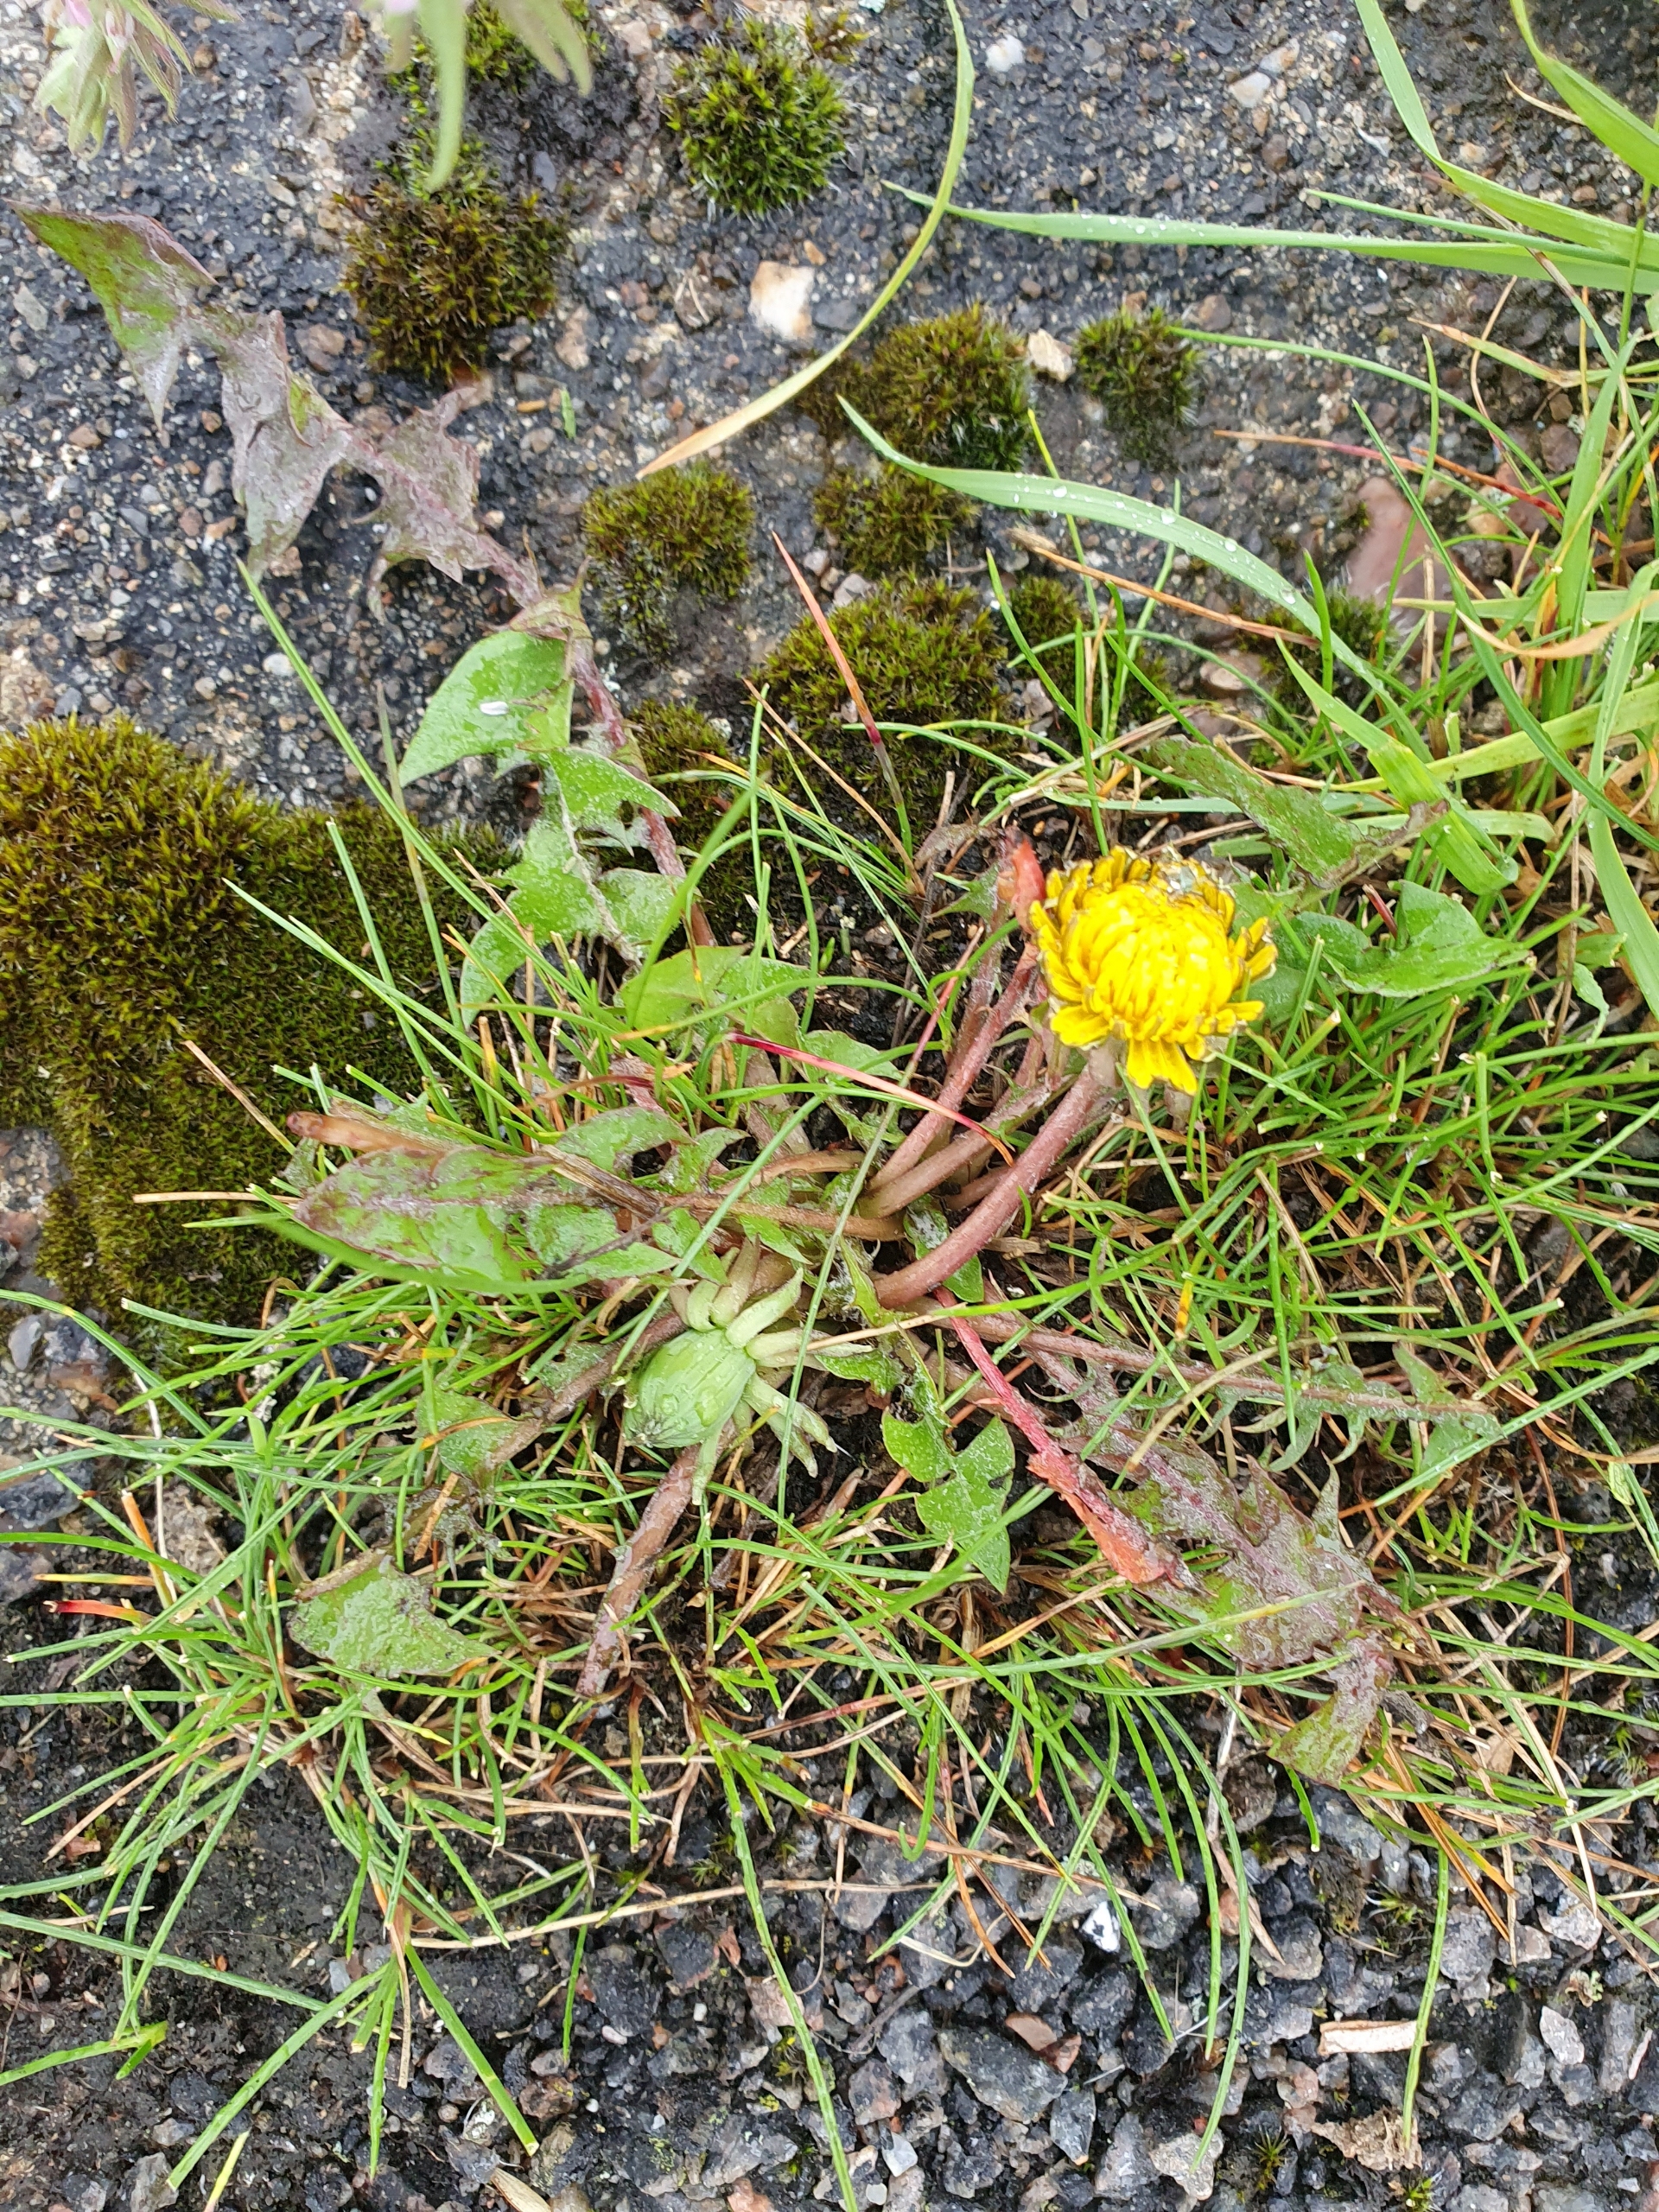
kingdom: Plantae
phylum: Tracheophyta
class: Magnoliopsida
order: Asterales
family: Asteraceae
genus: Taraxacum
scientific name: Taraxacum
